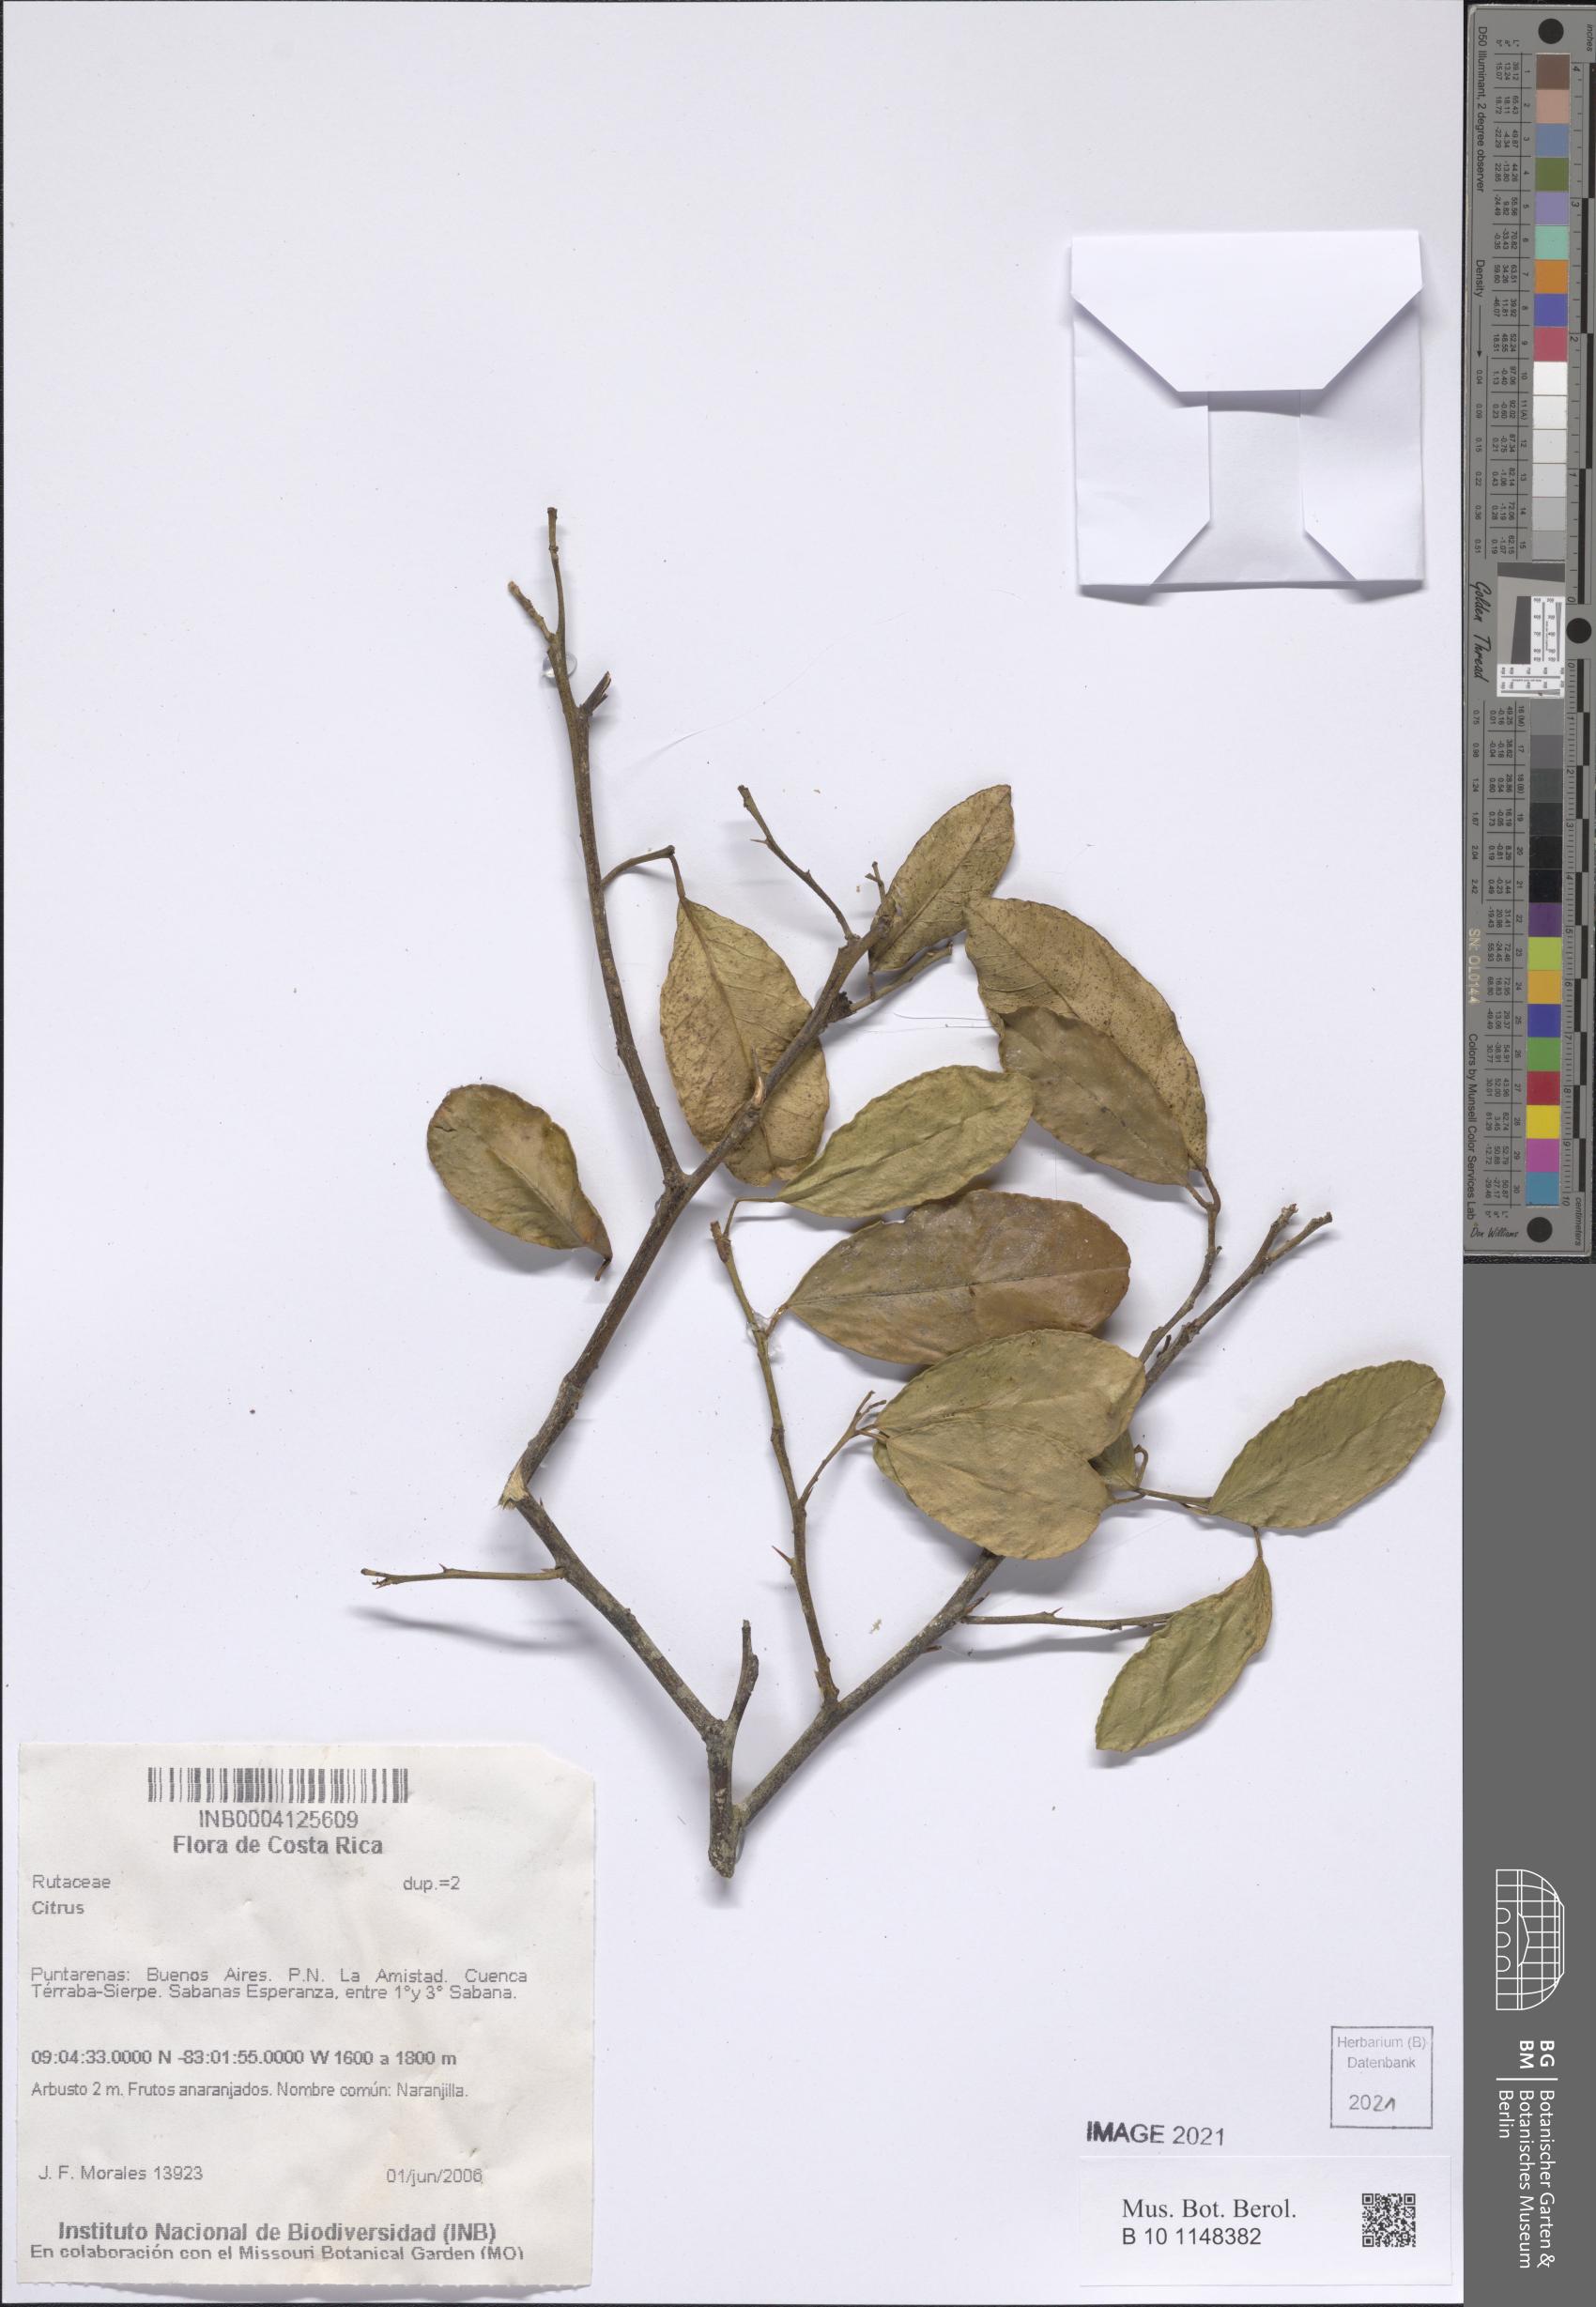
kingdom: Plantae
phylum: Tracheophyta
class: Magnoliopsida
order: Sapindales
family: Rutaceae
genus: Citrus
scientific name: Citrus
